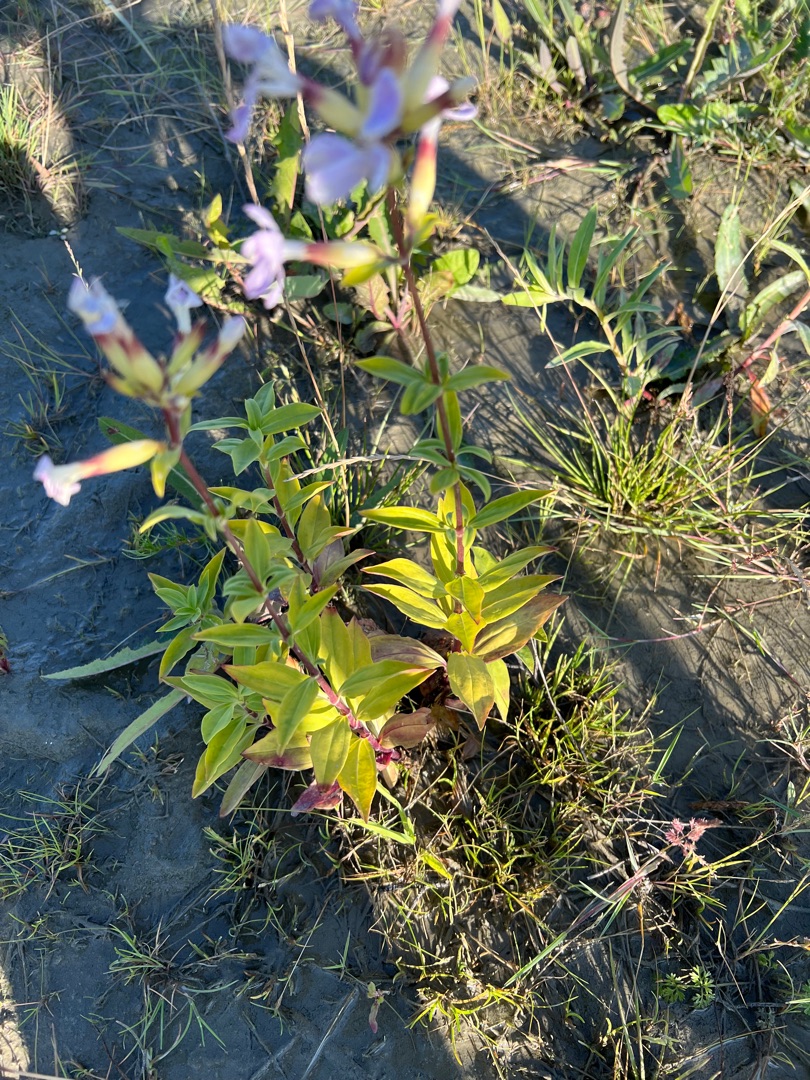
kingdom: Plantae
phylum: Tracheophyta
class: Magnoliopsida
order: Caryophyllales
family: Caryophyllaceae
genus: Saponaria
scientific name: Saponaria officinalis
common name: Sæbeurt
